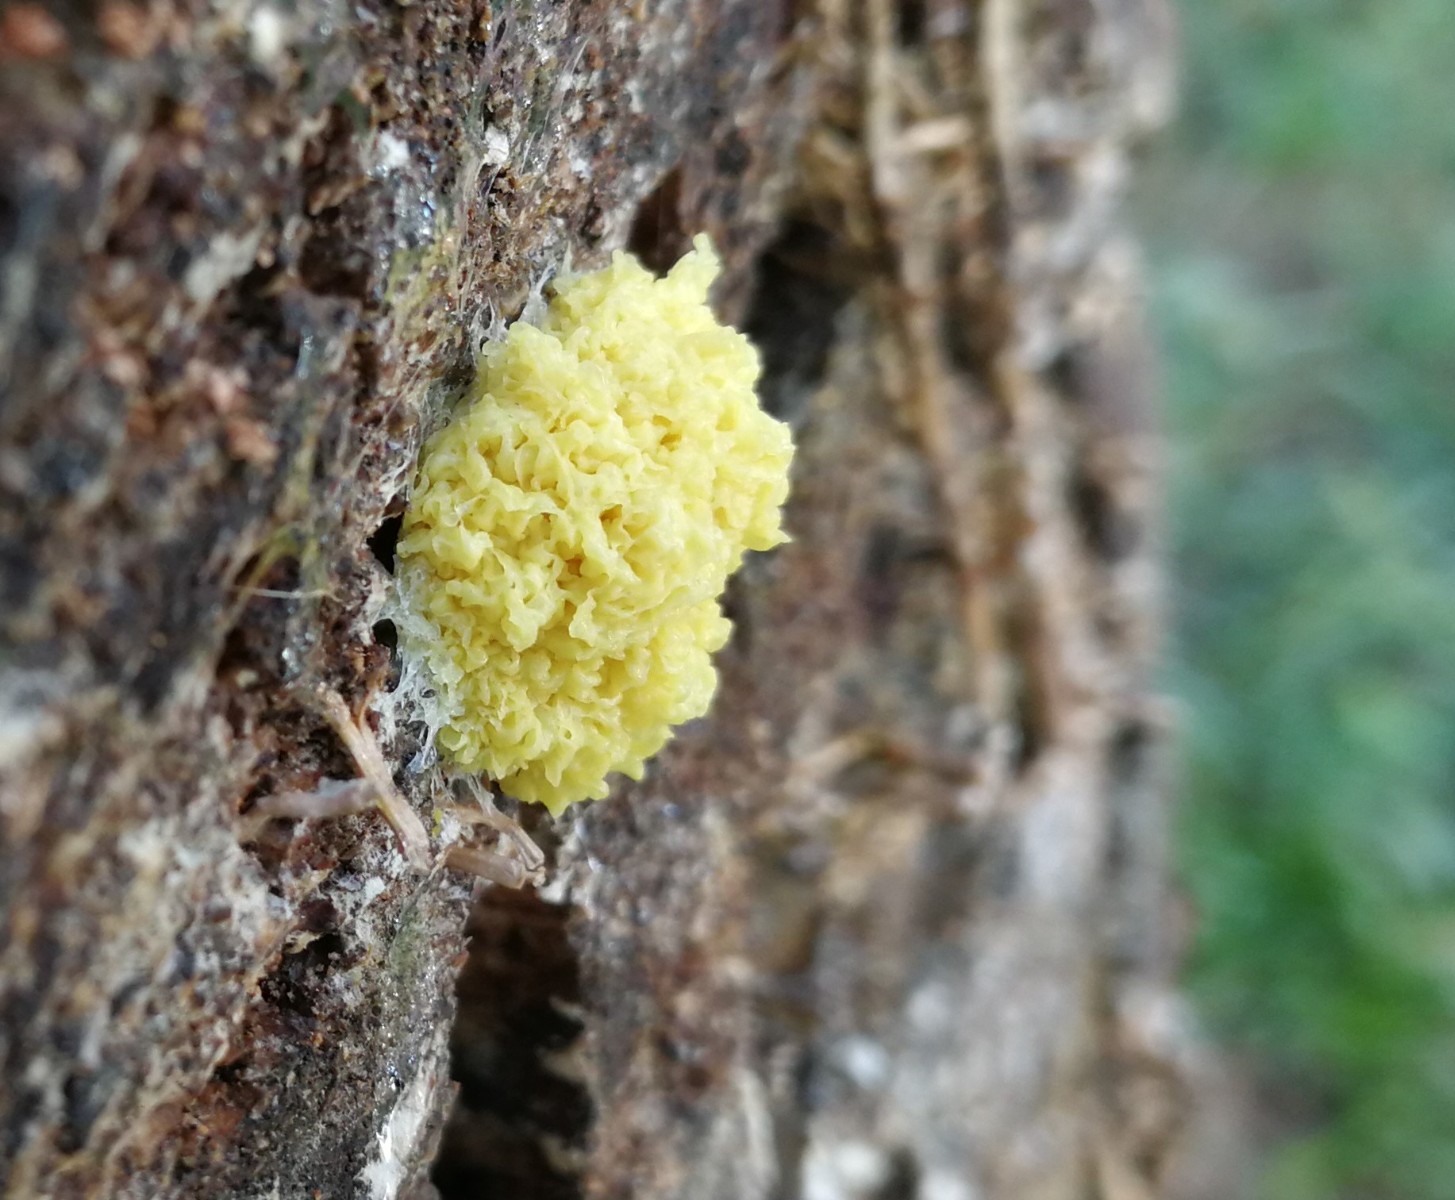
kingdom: Protozoa
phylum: Mycetozoa
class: Myxomycetes
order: Physarales
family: Physaraceae
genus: Fuligo
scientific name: Fuligo septica
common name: gul troldsmør
